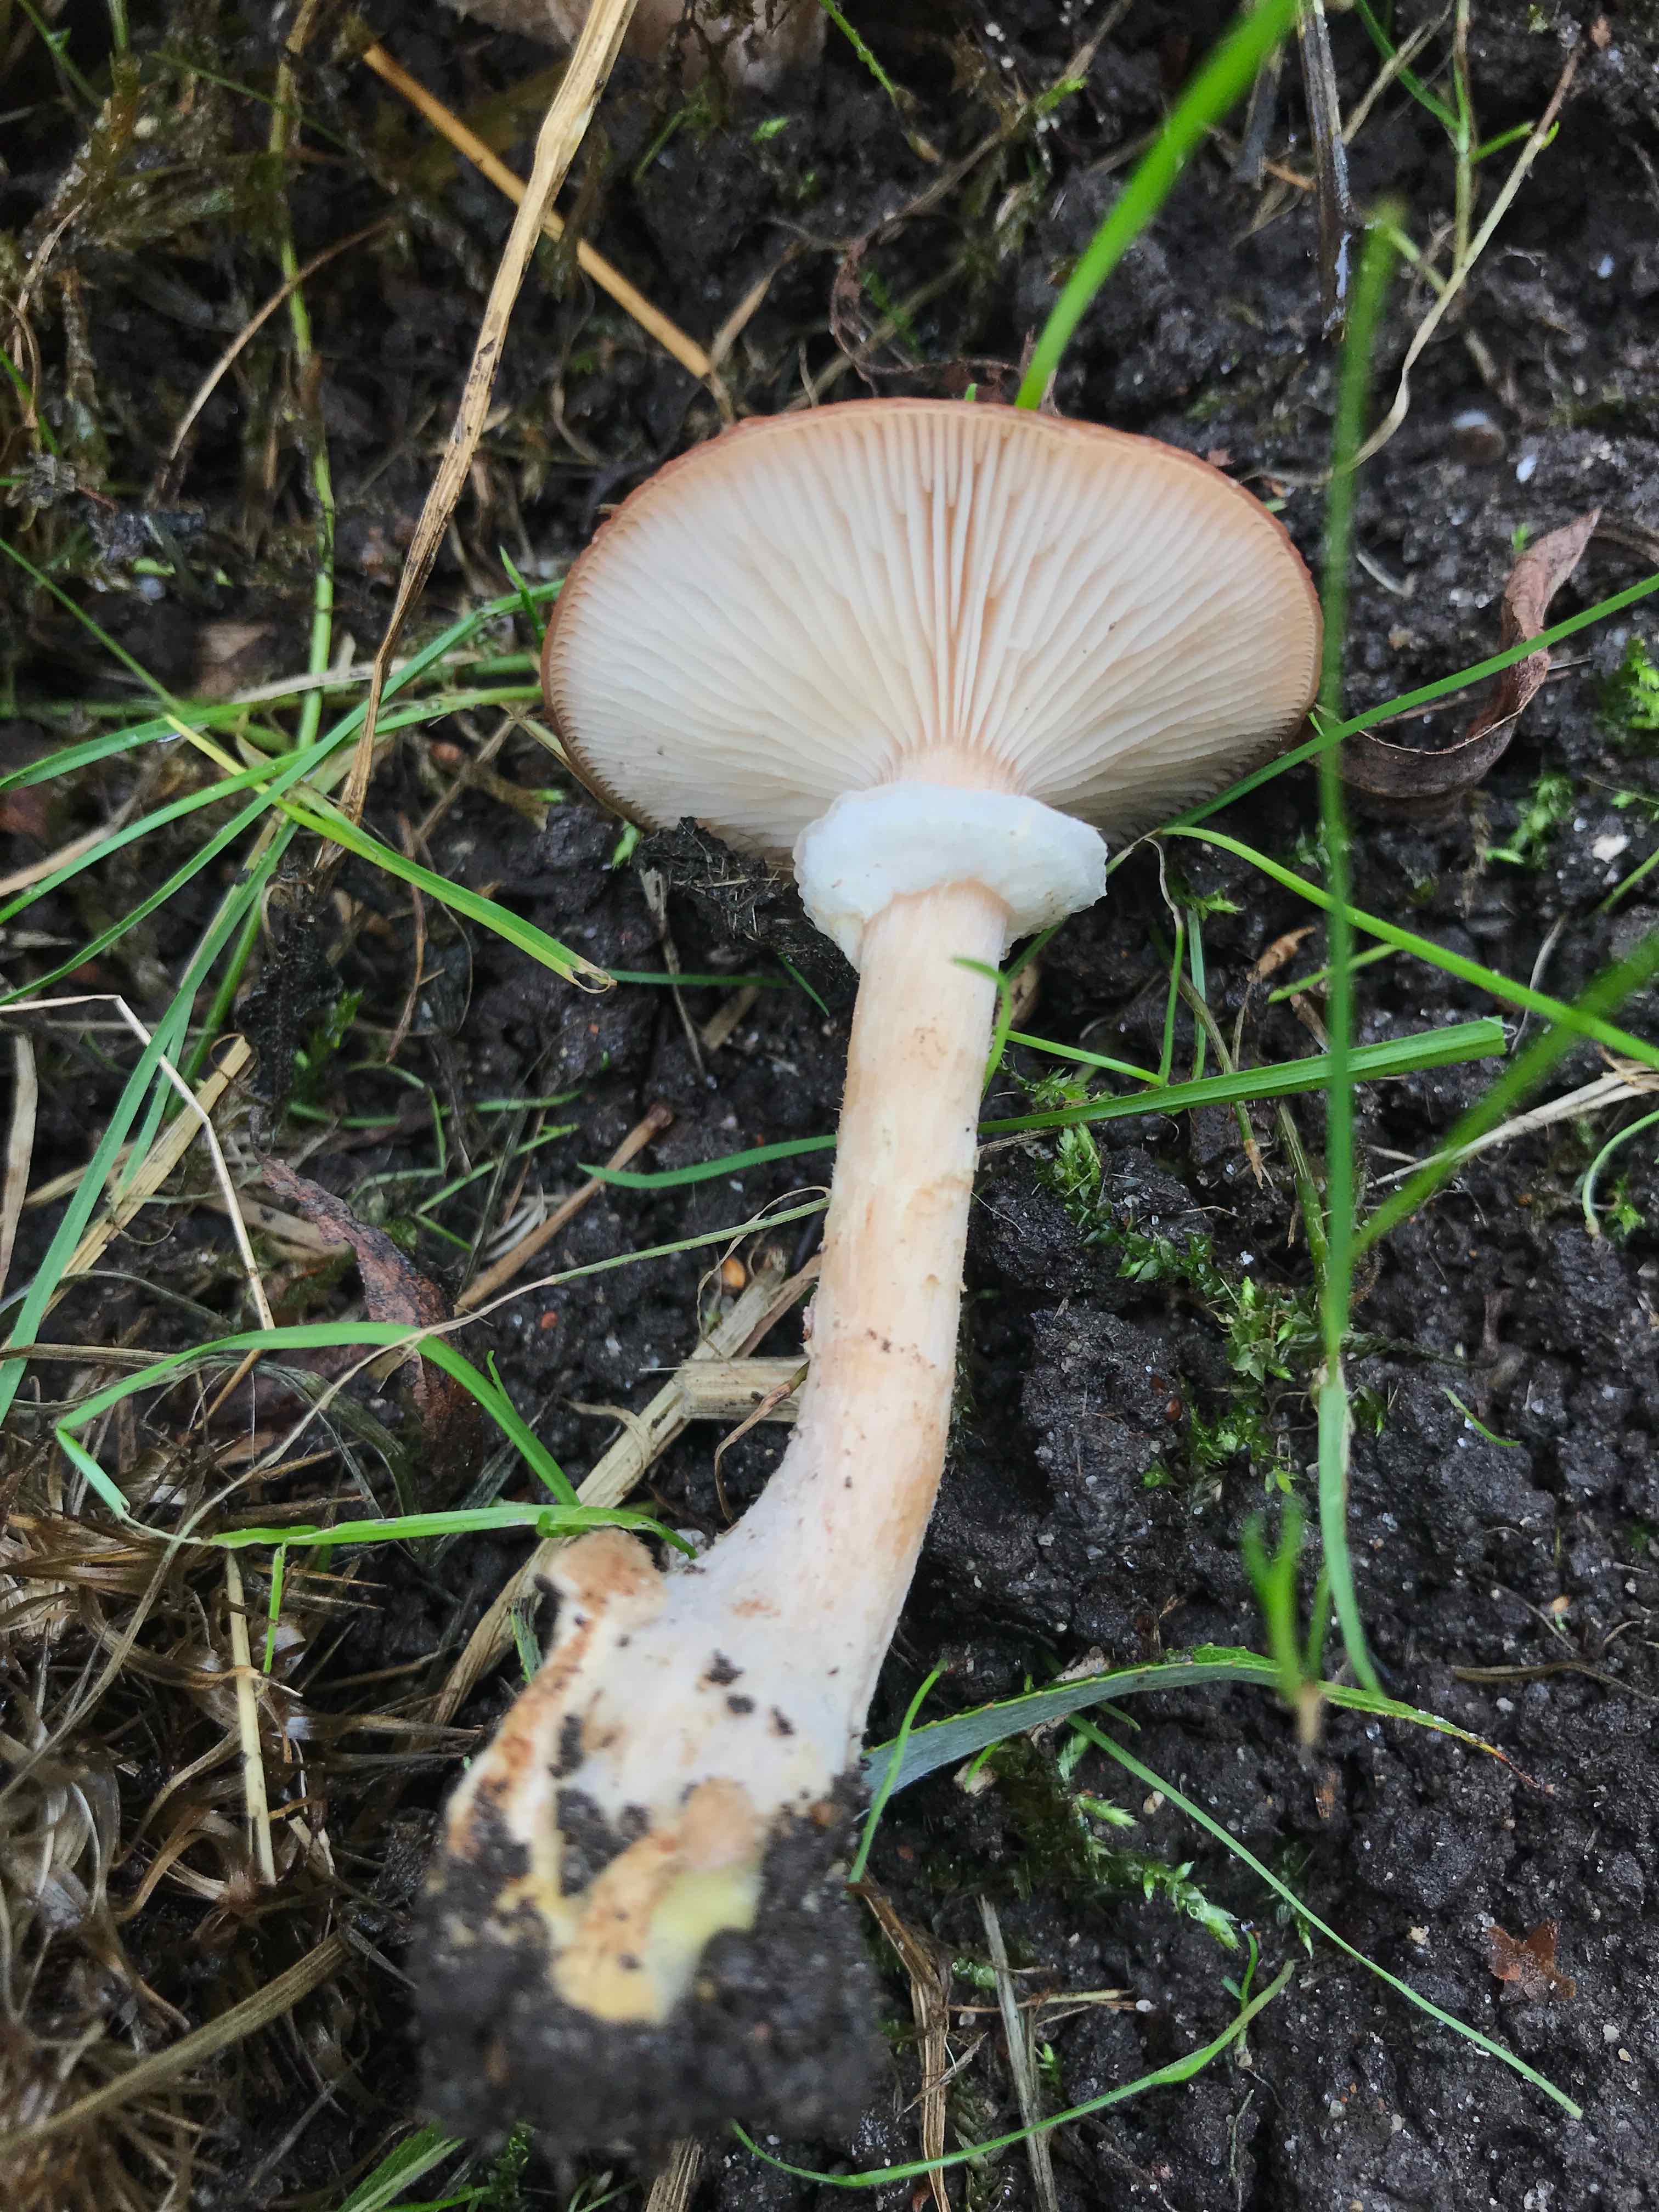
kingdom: Fungi
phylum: Basidiomycota
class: Agaricomycetes
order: Agaricales
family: Physalacriaceae
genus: Armillaria
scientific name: Armillaria lutea
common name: køllestokket honningsvamp
